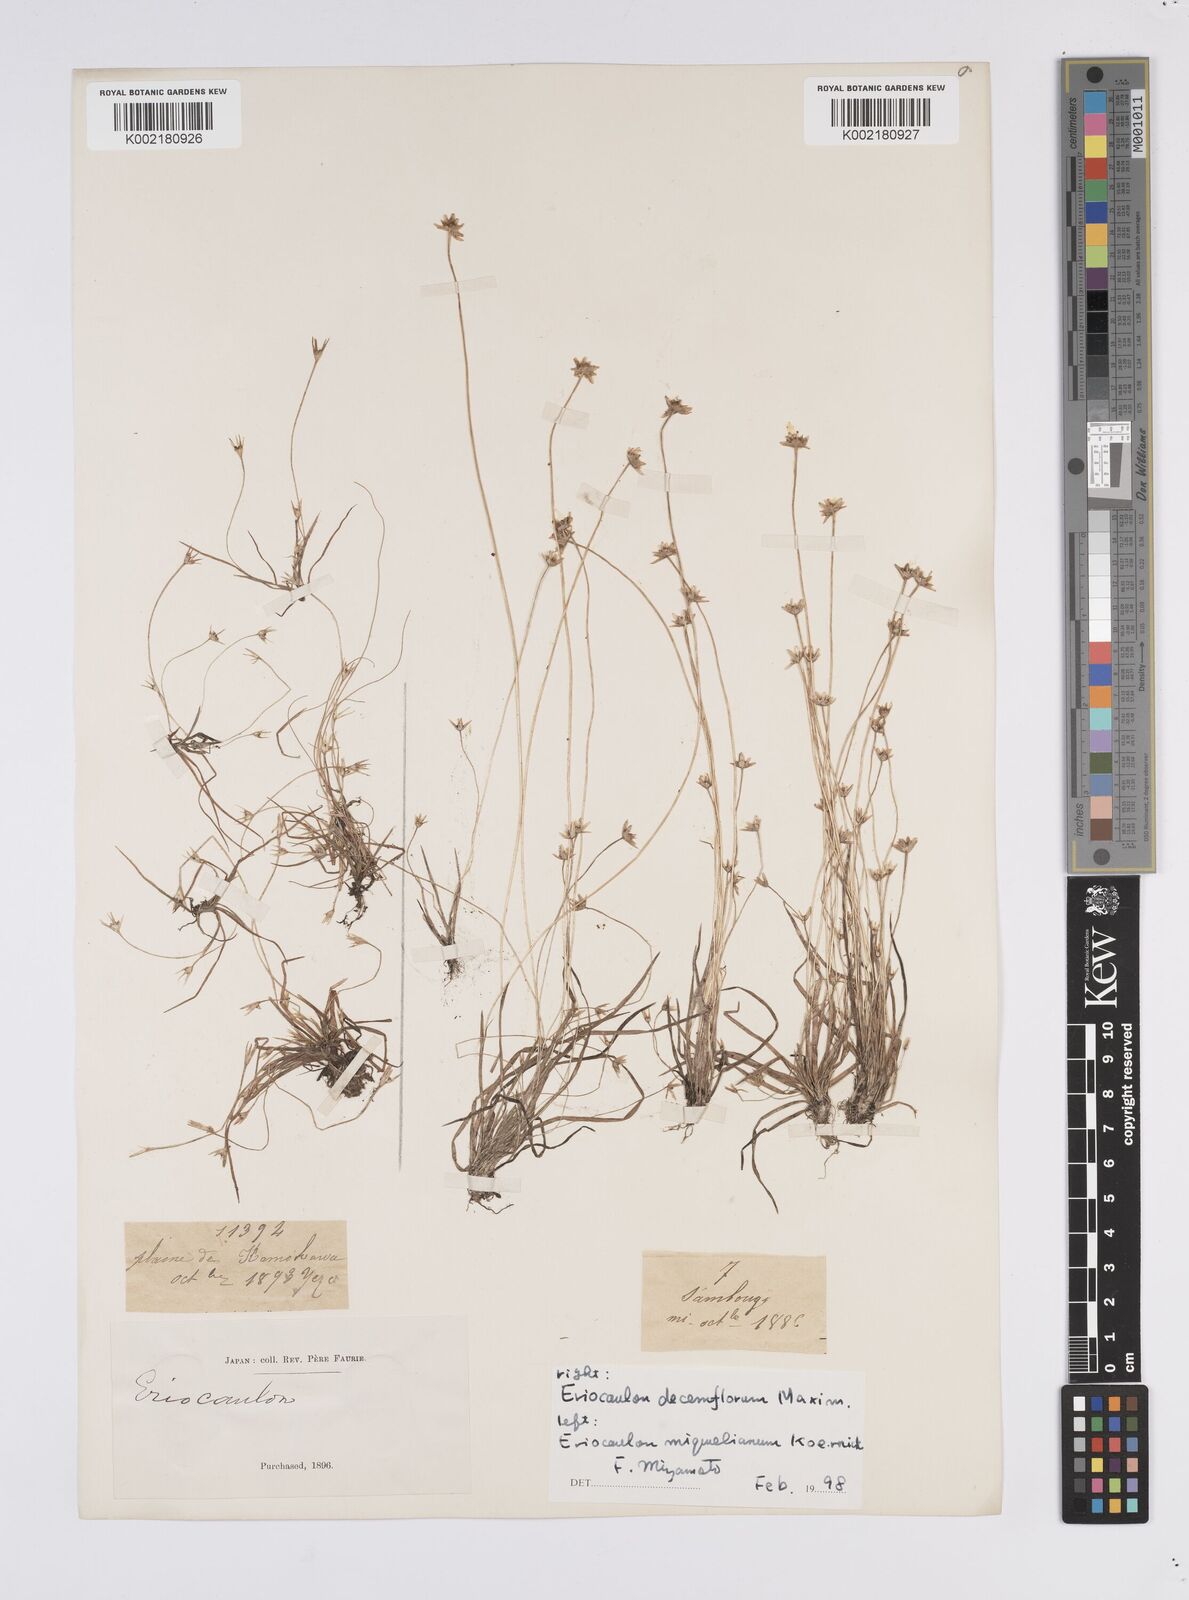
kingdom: Plantae
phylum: Tracheophyta
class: Liliopsida
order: Poales
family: Eriocaulaceae
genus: Eriocaulon
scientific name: Eriocaulon decemflorum
